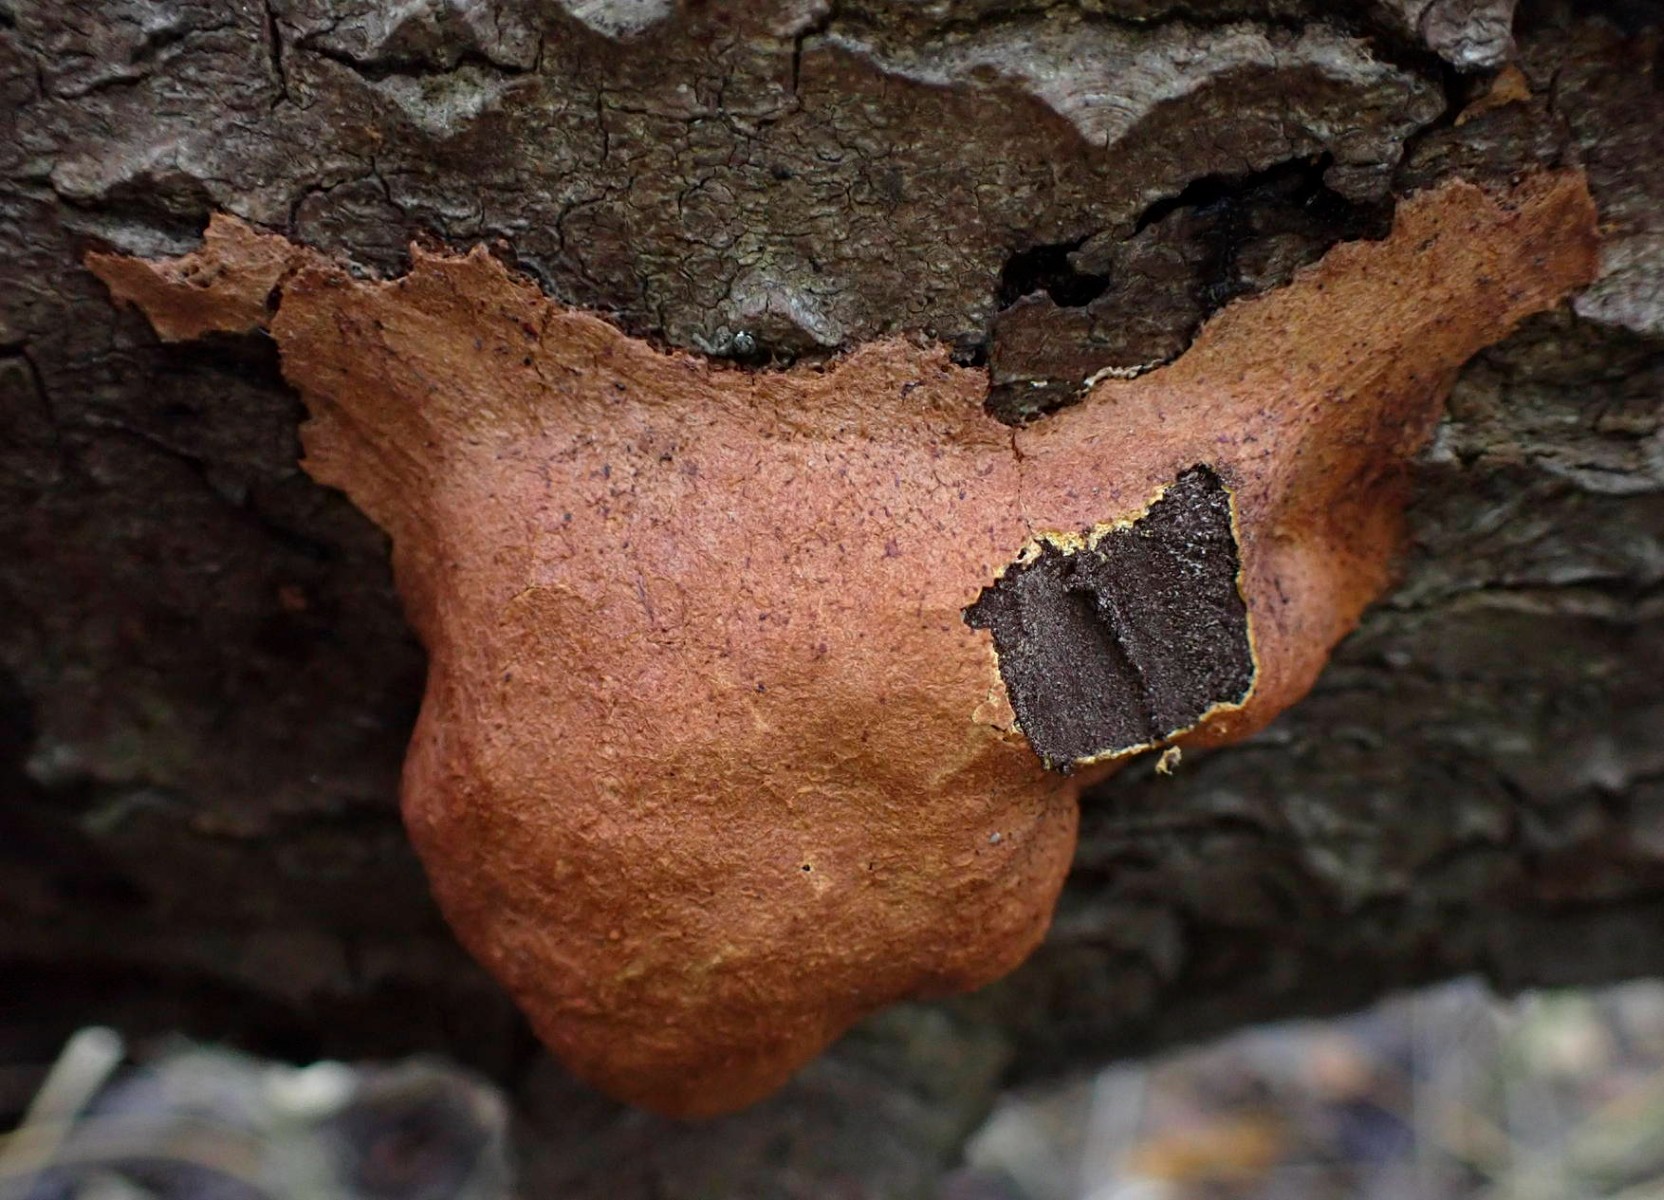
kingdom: Protozoa
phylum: Mycetozoa
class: Myxomycetes
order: Physarales
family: Physaraceae
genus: Fuligo
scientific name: Fuligo
